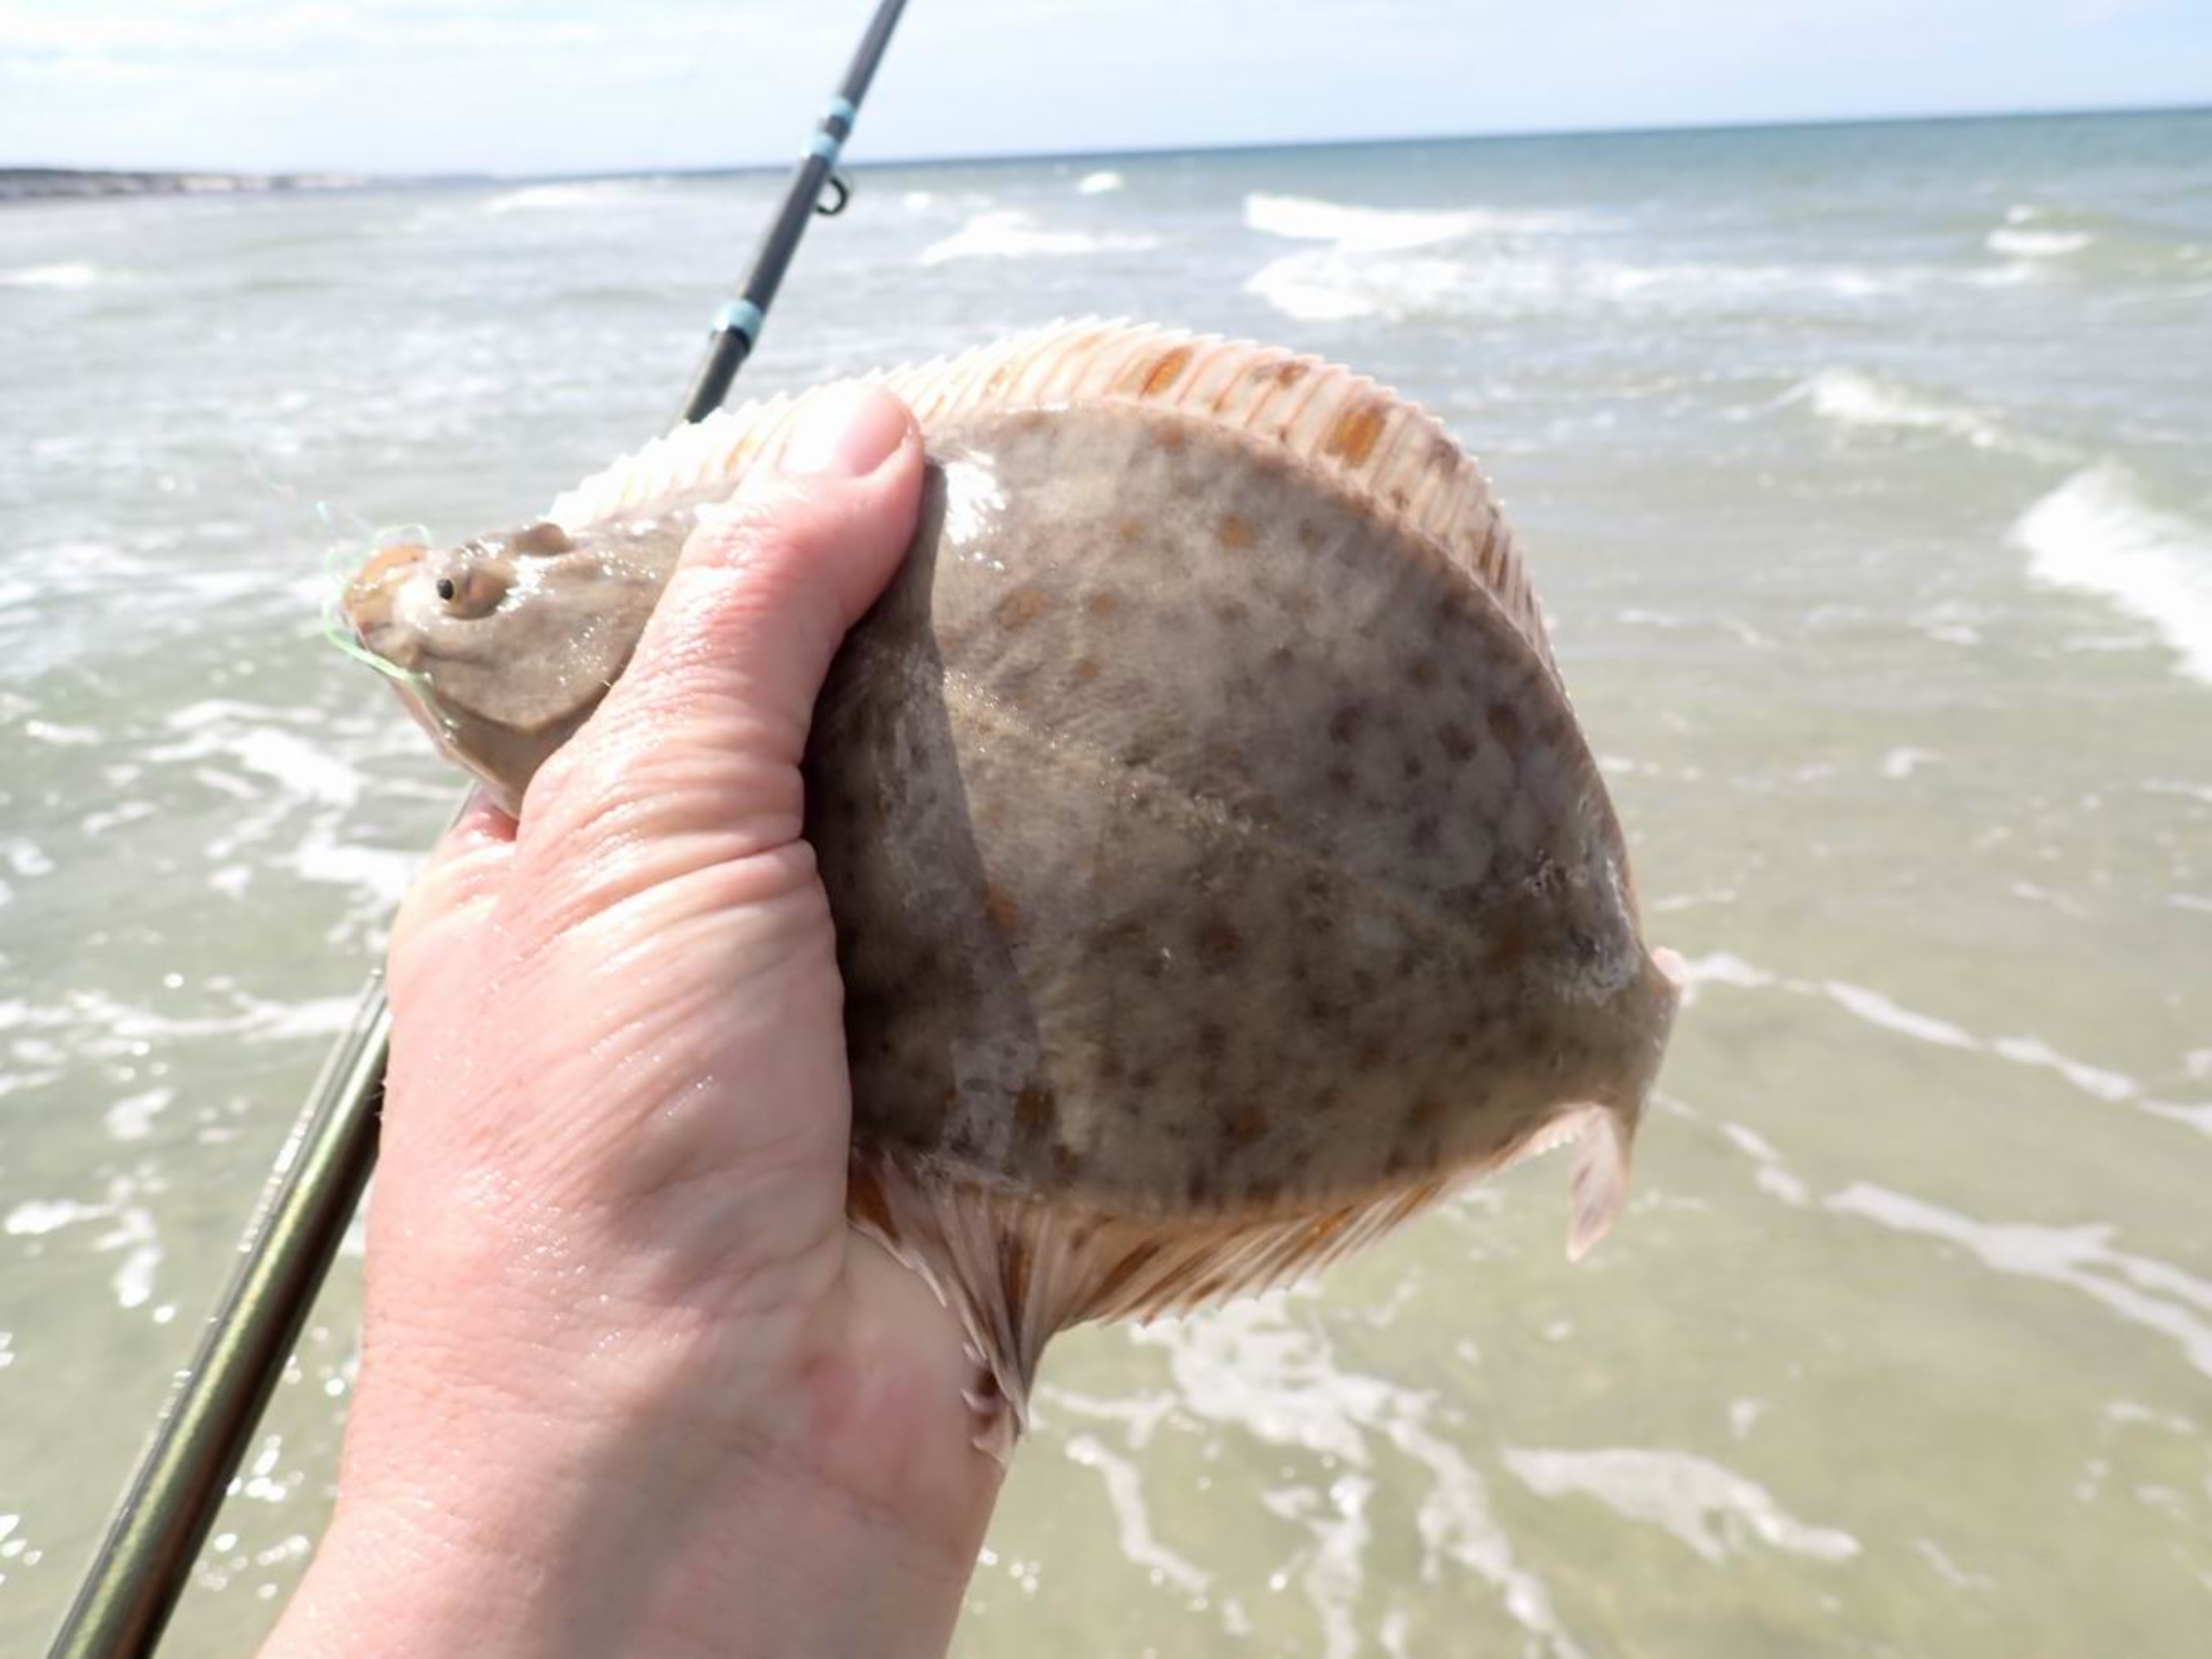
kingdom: Animalia
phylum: Chordata
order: Pleuronectiformes
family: Pleuronectidae
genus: Platichthys
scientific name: Platichthys flesus
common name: Skrubbe
